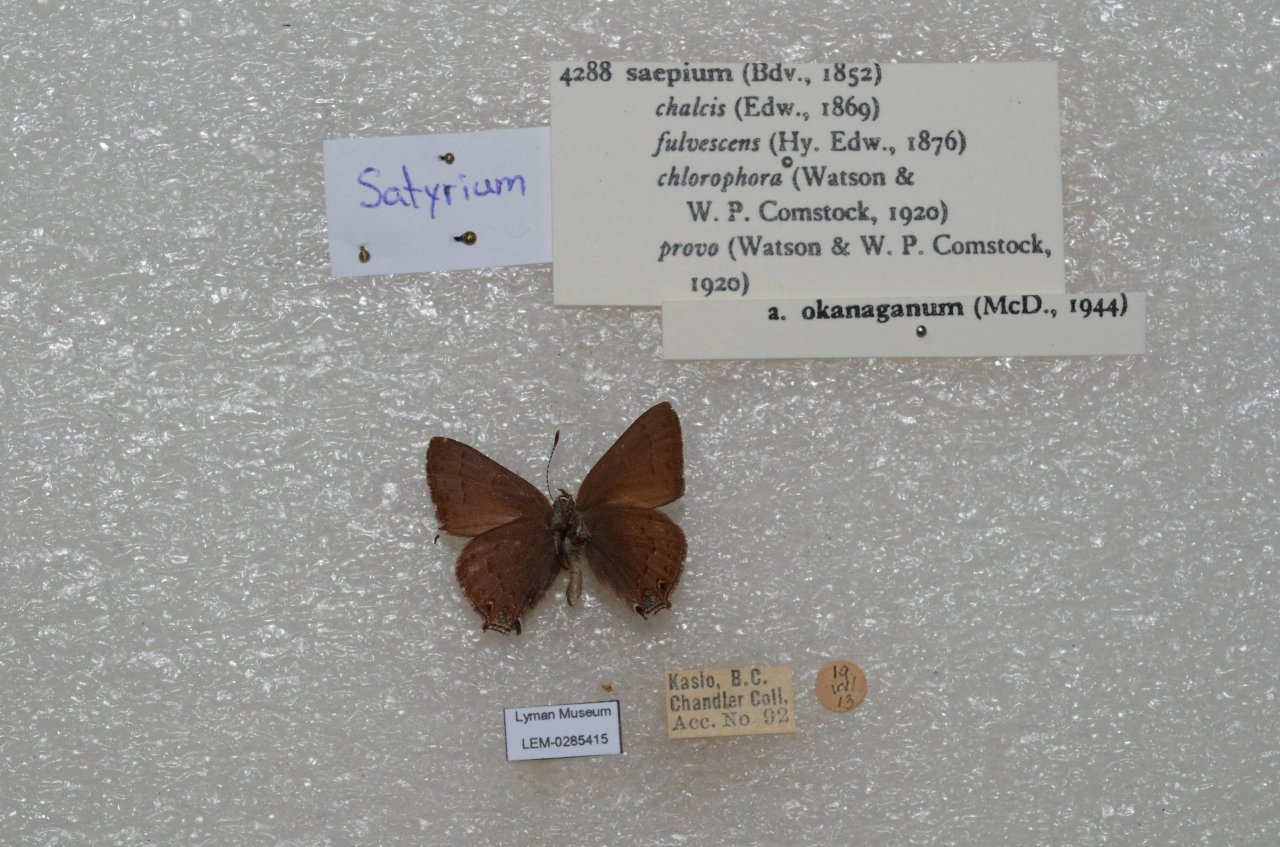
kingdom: Animalia
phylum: Arthropoda
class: Insecta
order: Lepidoptera
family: Lycaenidae
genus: Strymon
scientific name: Strymon saepium
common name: Hedgerow Hairstreak
